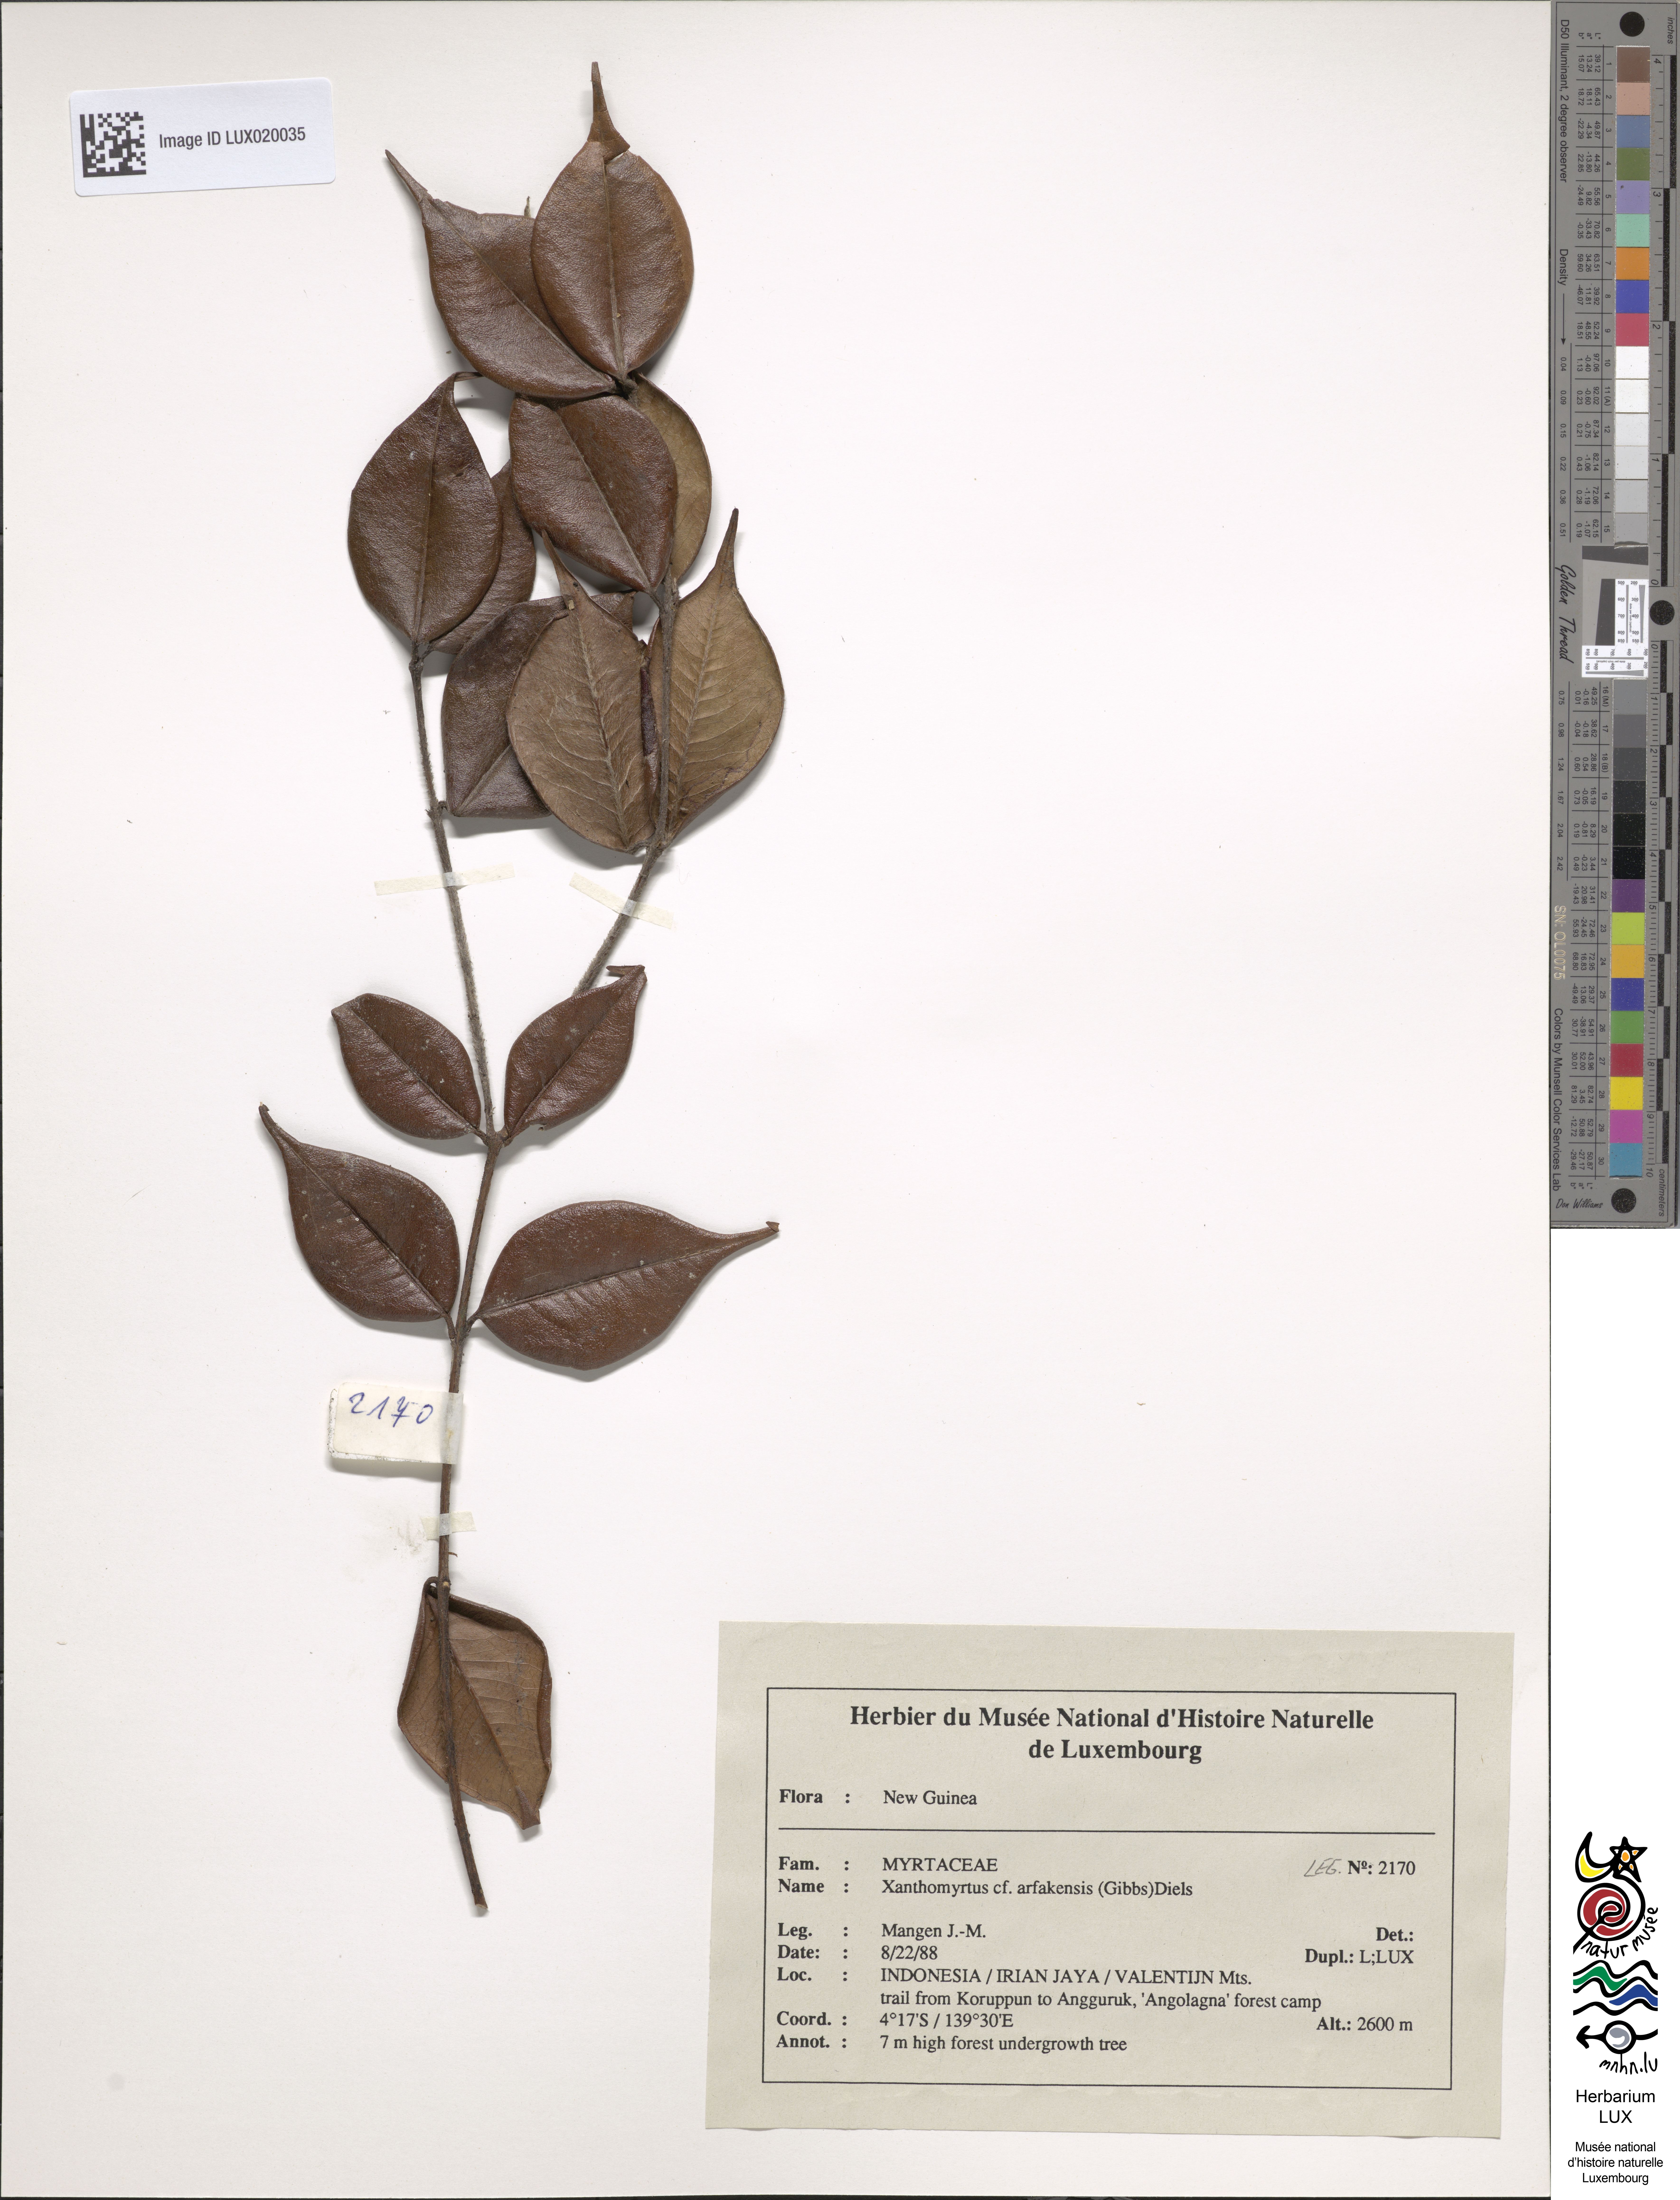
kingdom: Plantae
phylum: Tracheophyta
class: Magnoliopsida
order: Myrtales
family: Myrtaceae
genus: Xanthomyrtus
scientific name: Xanthomyrtus arfakensis
